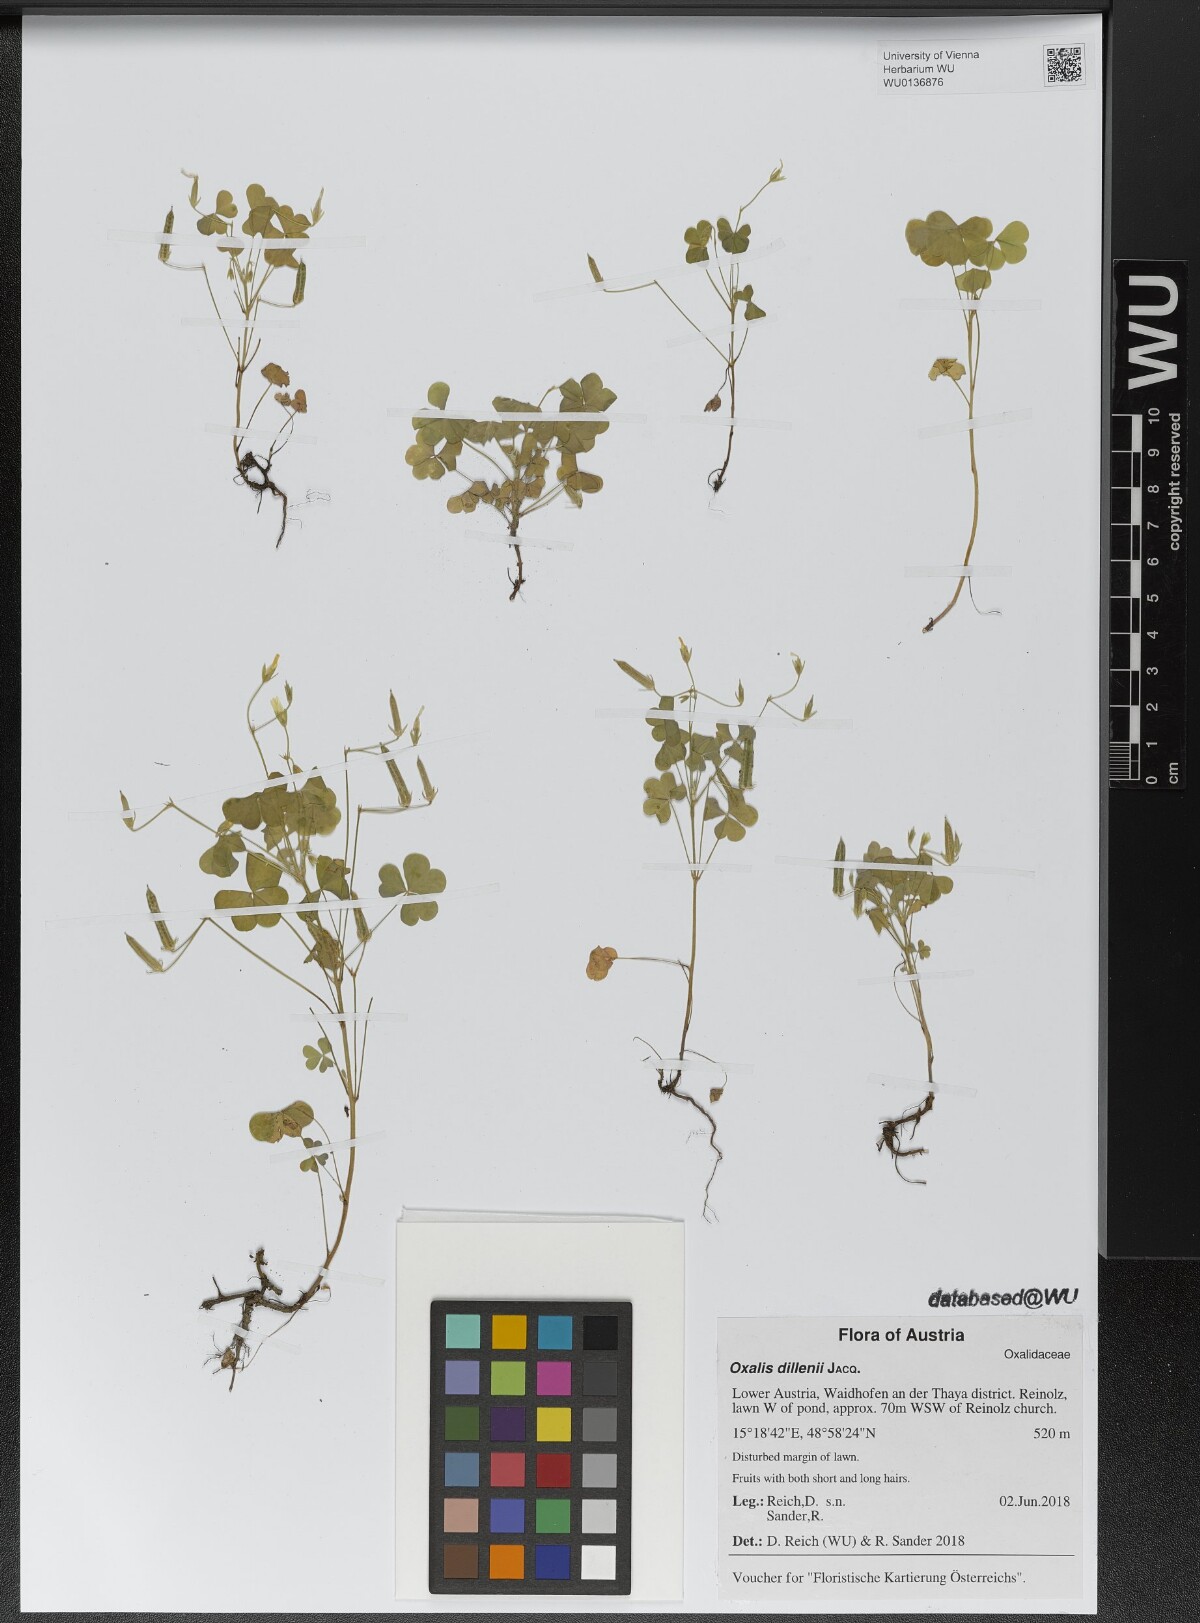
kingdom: Plantae
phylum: Tracheophyta
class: Magnoliopsida
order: Oxalidales
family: Oxalidaceae
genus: Oxalis
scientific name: Oxalis dillenii
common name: Sussex yellow-sorrel
